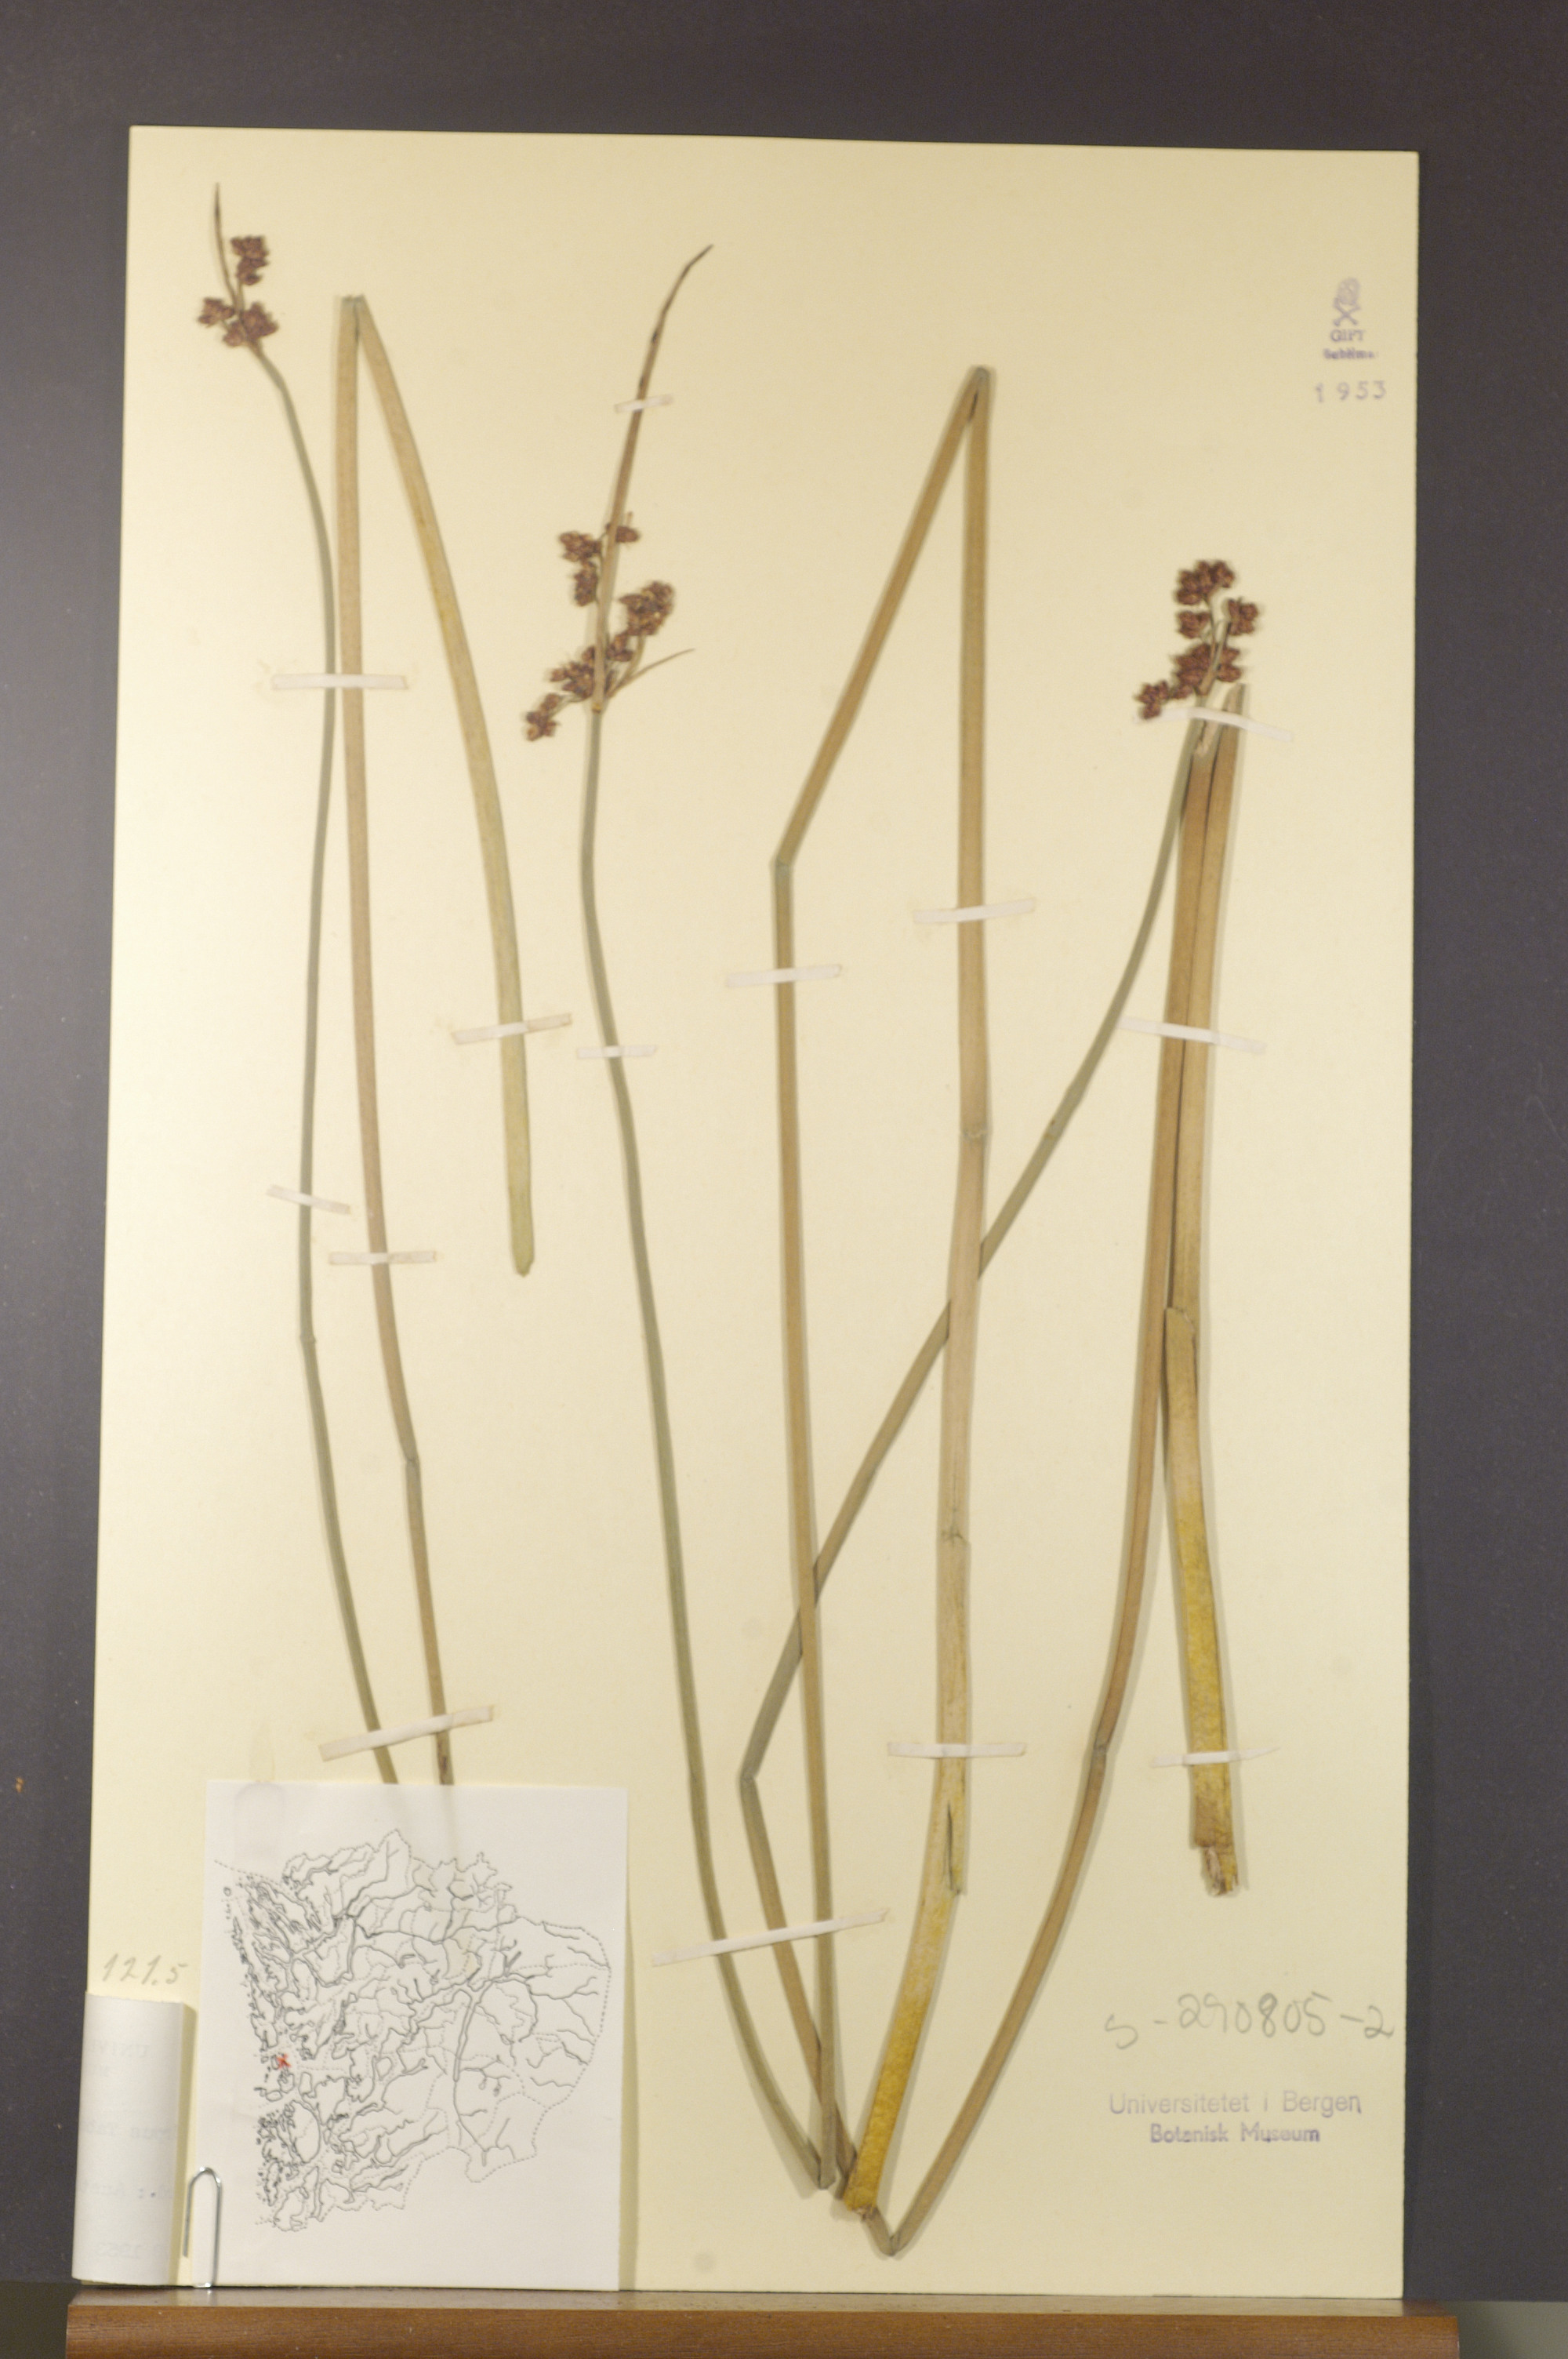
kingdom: Plantae
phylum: Tracheophyta
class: Liliopsida
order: Poales
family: Cyperaceae
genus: Schoenoplectus
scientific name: Schoenoplectus tabernaemontani
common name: Grey club-rush
